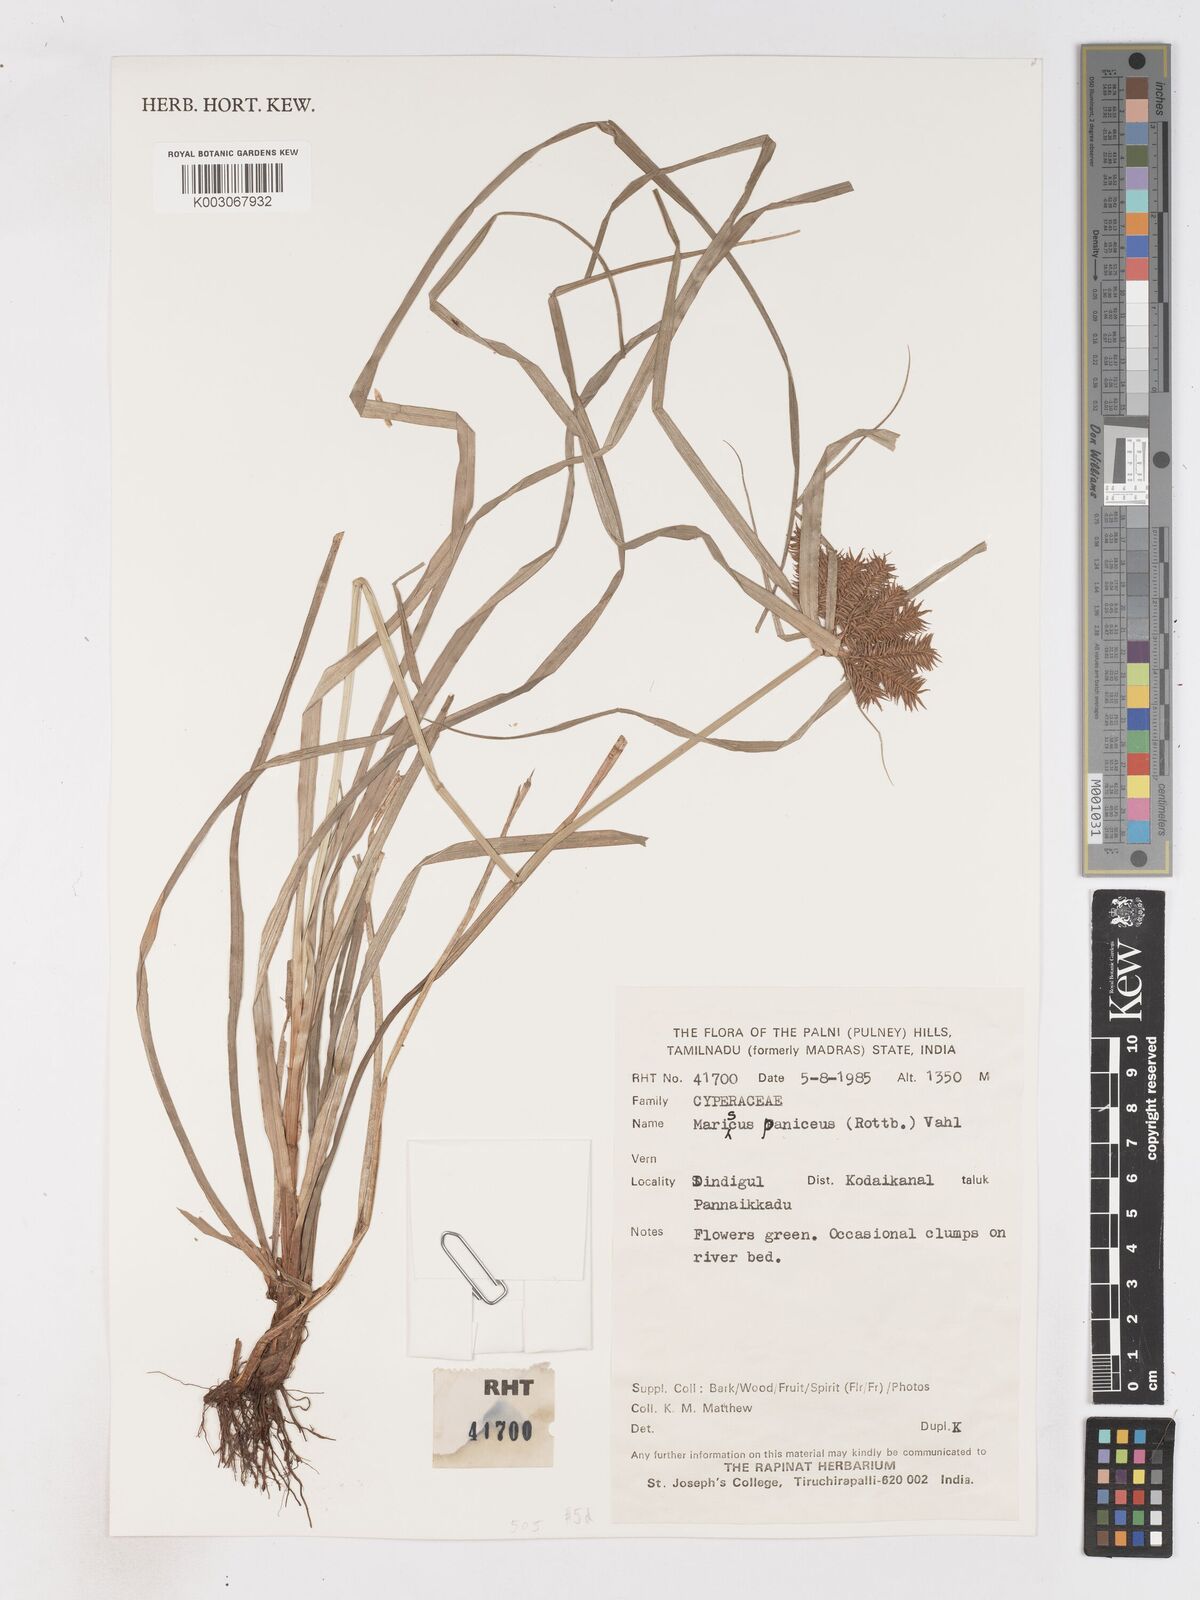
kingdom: Plantae
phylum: Tracheophyta
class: Liliopsida
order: Poales
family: Cyperaceae
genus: Cyperus
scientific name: Cyperus paniceus
